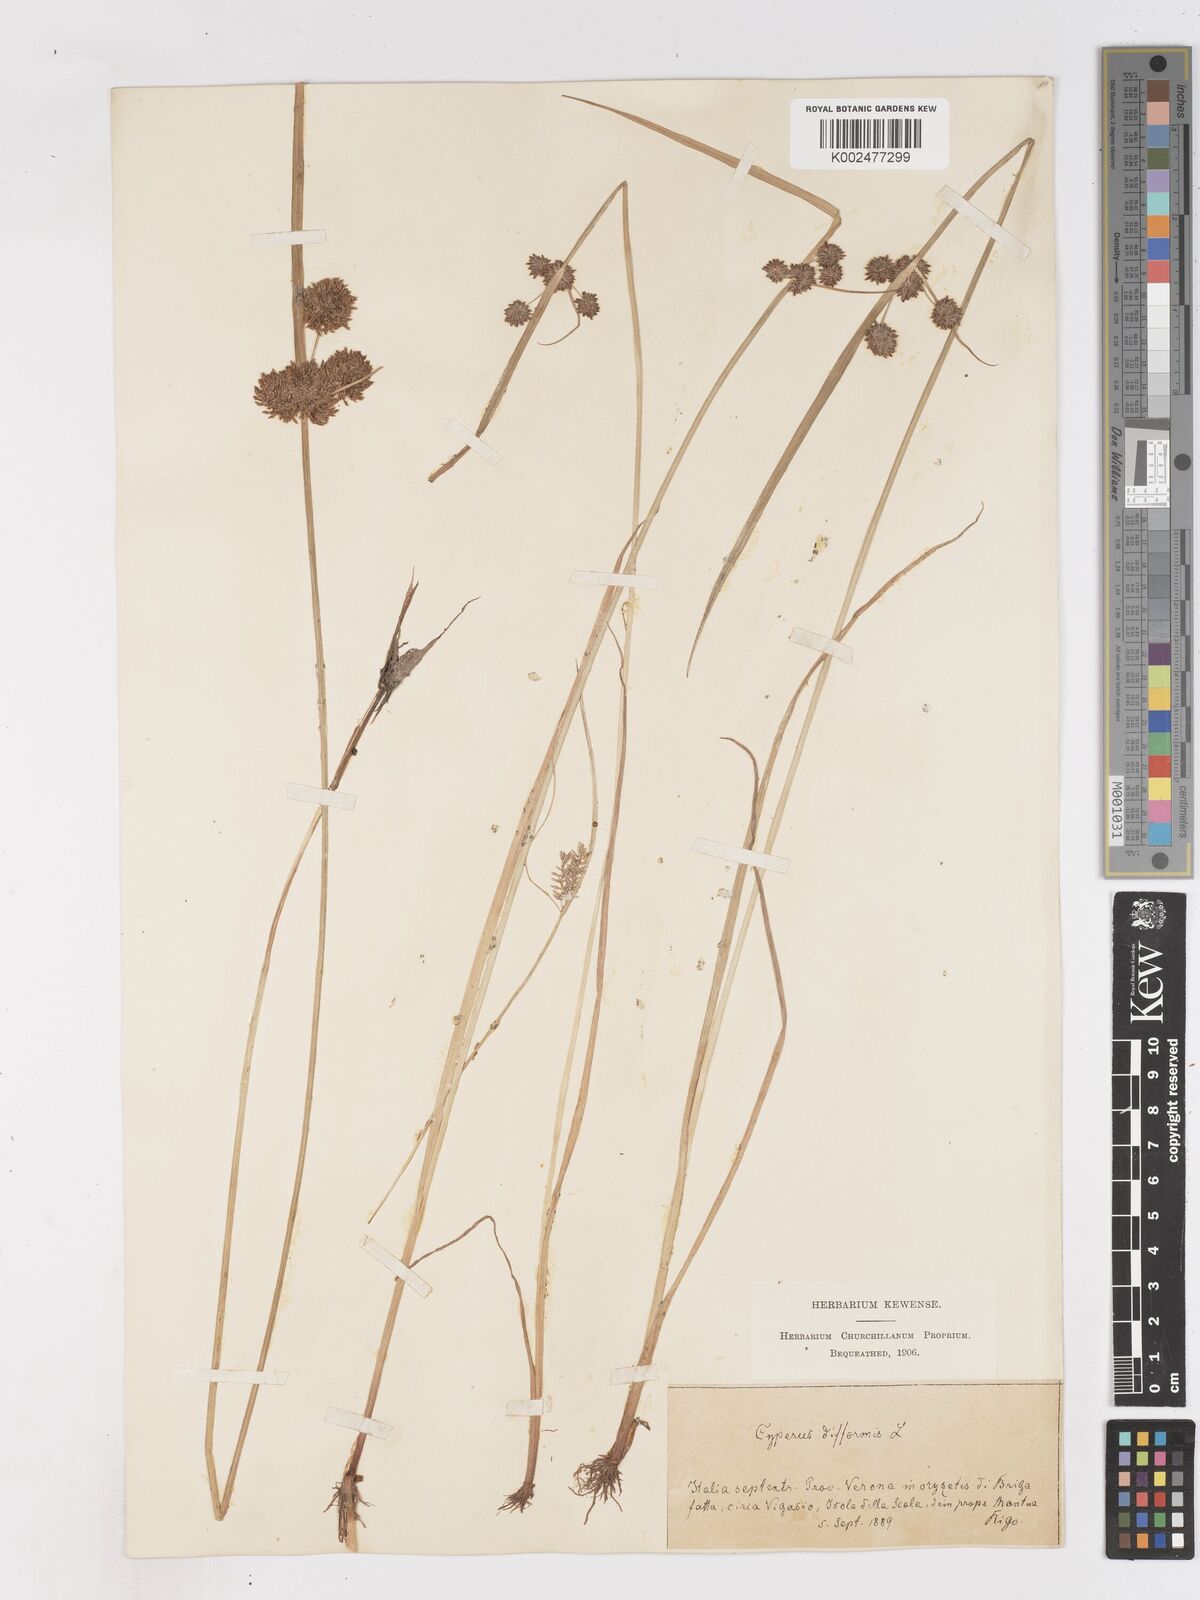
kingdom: Plantae
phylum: Tracheophyta
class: Liliopsida
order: Poales
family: Cyperaceae
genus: Cyperus
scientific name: Cyperus difformis
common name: Variable flatsedge
